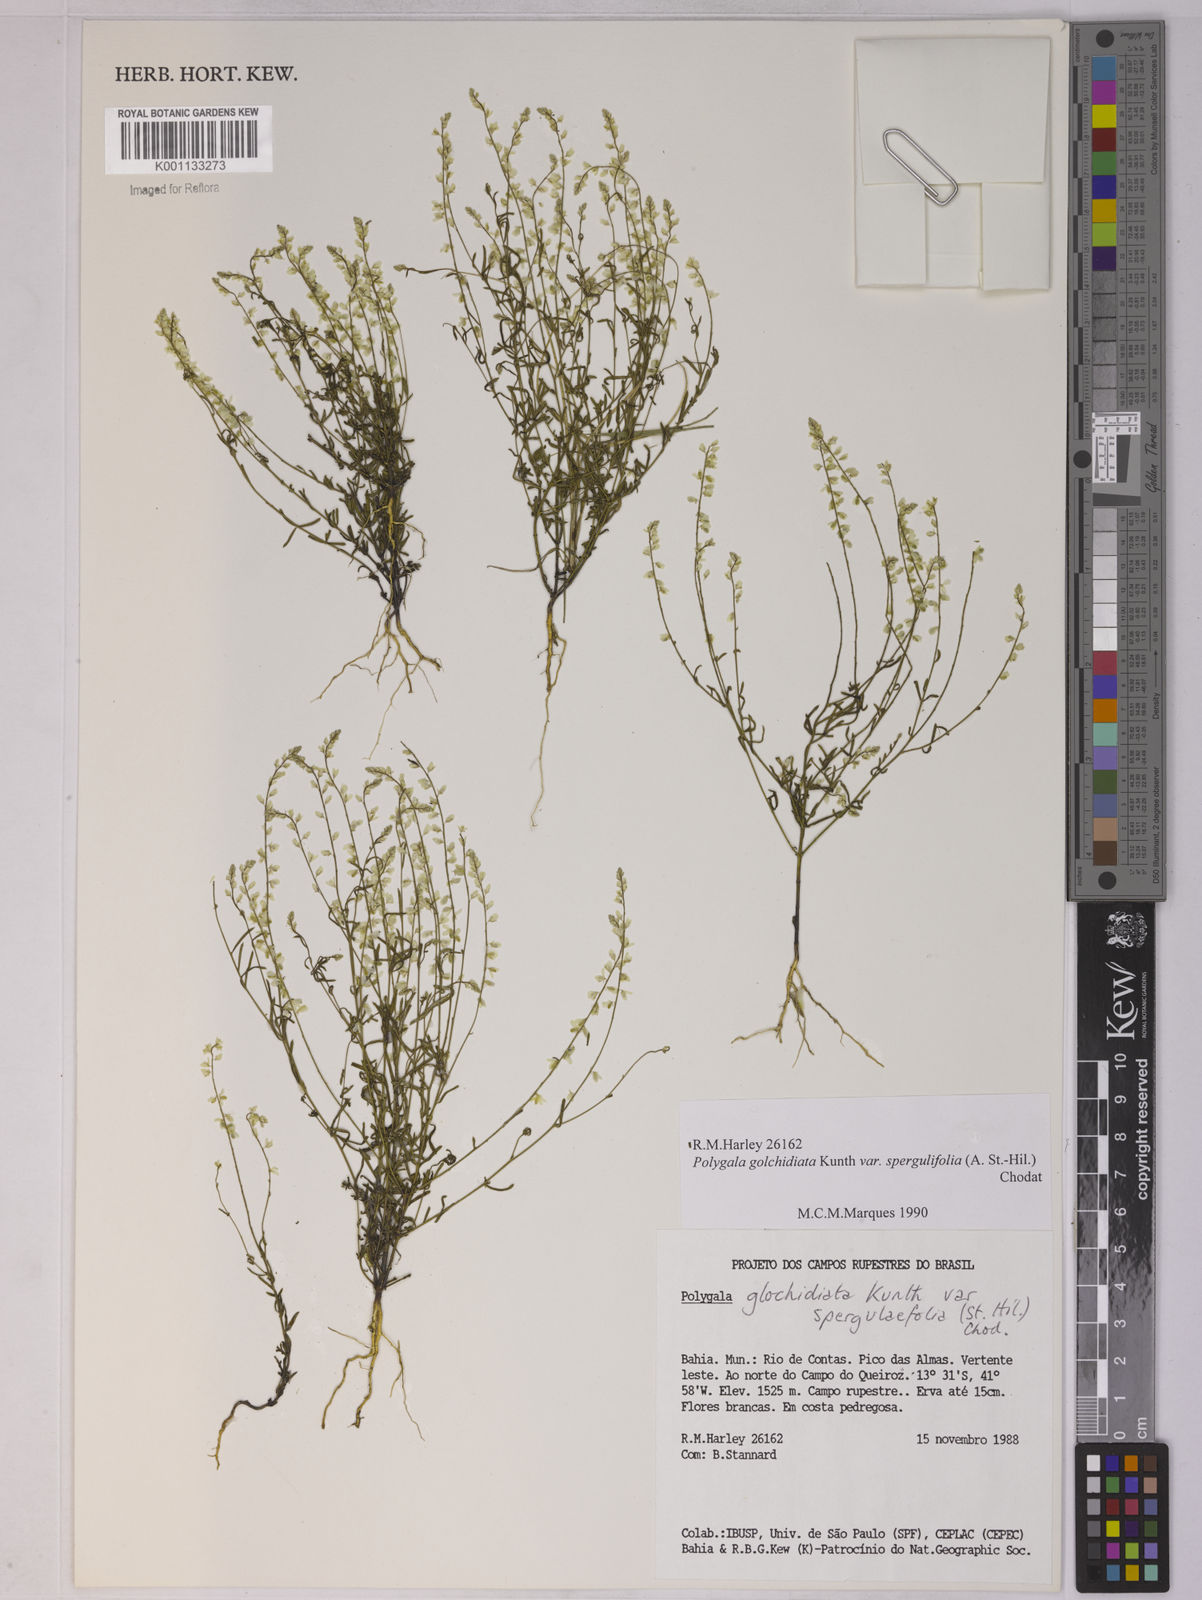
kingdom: Plantae
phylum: Tracheophyta
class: Magnoliopsida
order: Fabales
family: Polygalaceae
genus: Polygala
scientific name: Polygala glochidiata
